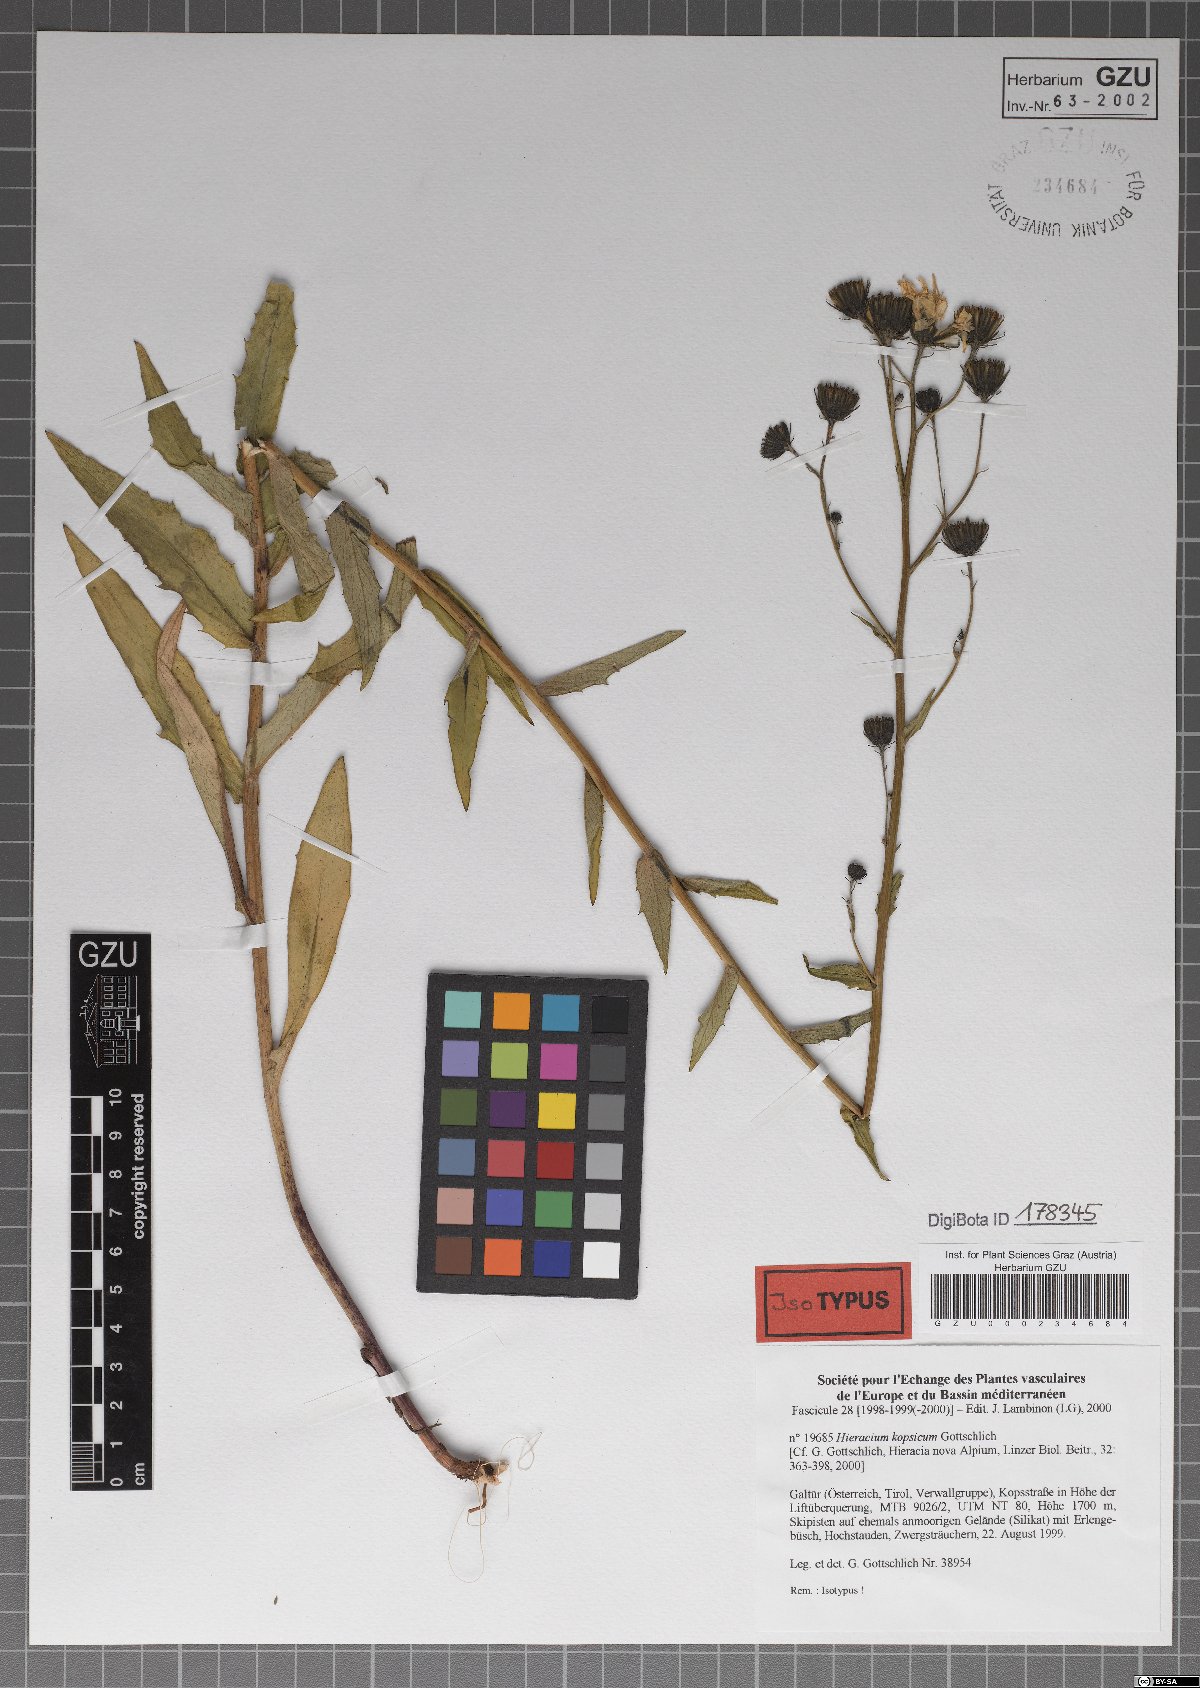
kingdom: Plantae
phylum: Tracheophyta
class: Magnoliopsida
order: Asterales
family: Asteraceae
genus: Hieracium
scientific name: Hieracium kopsicum
